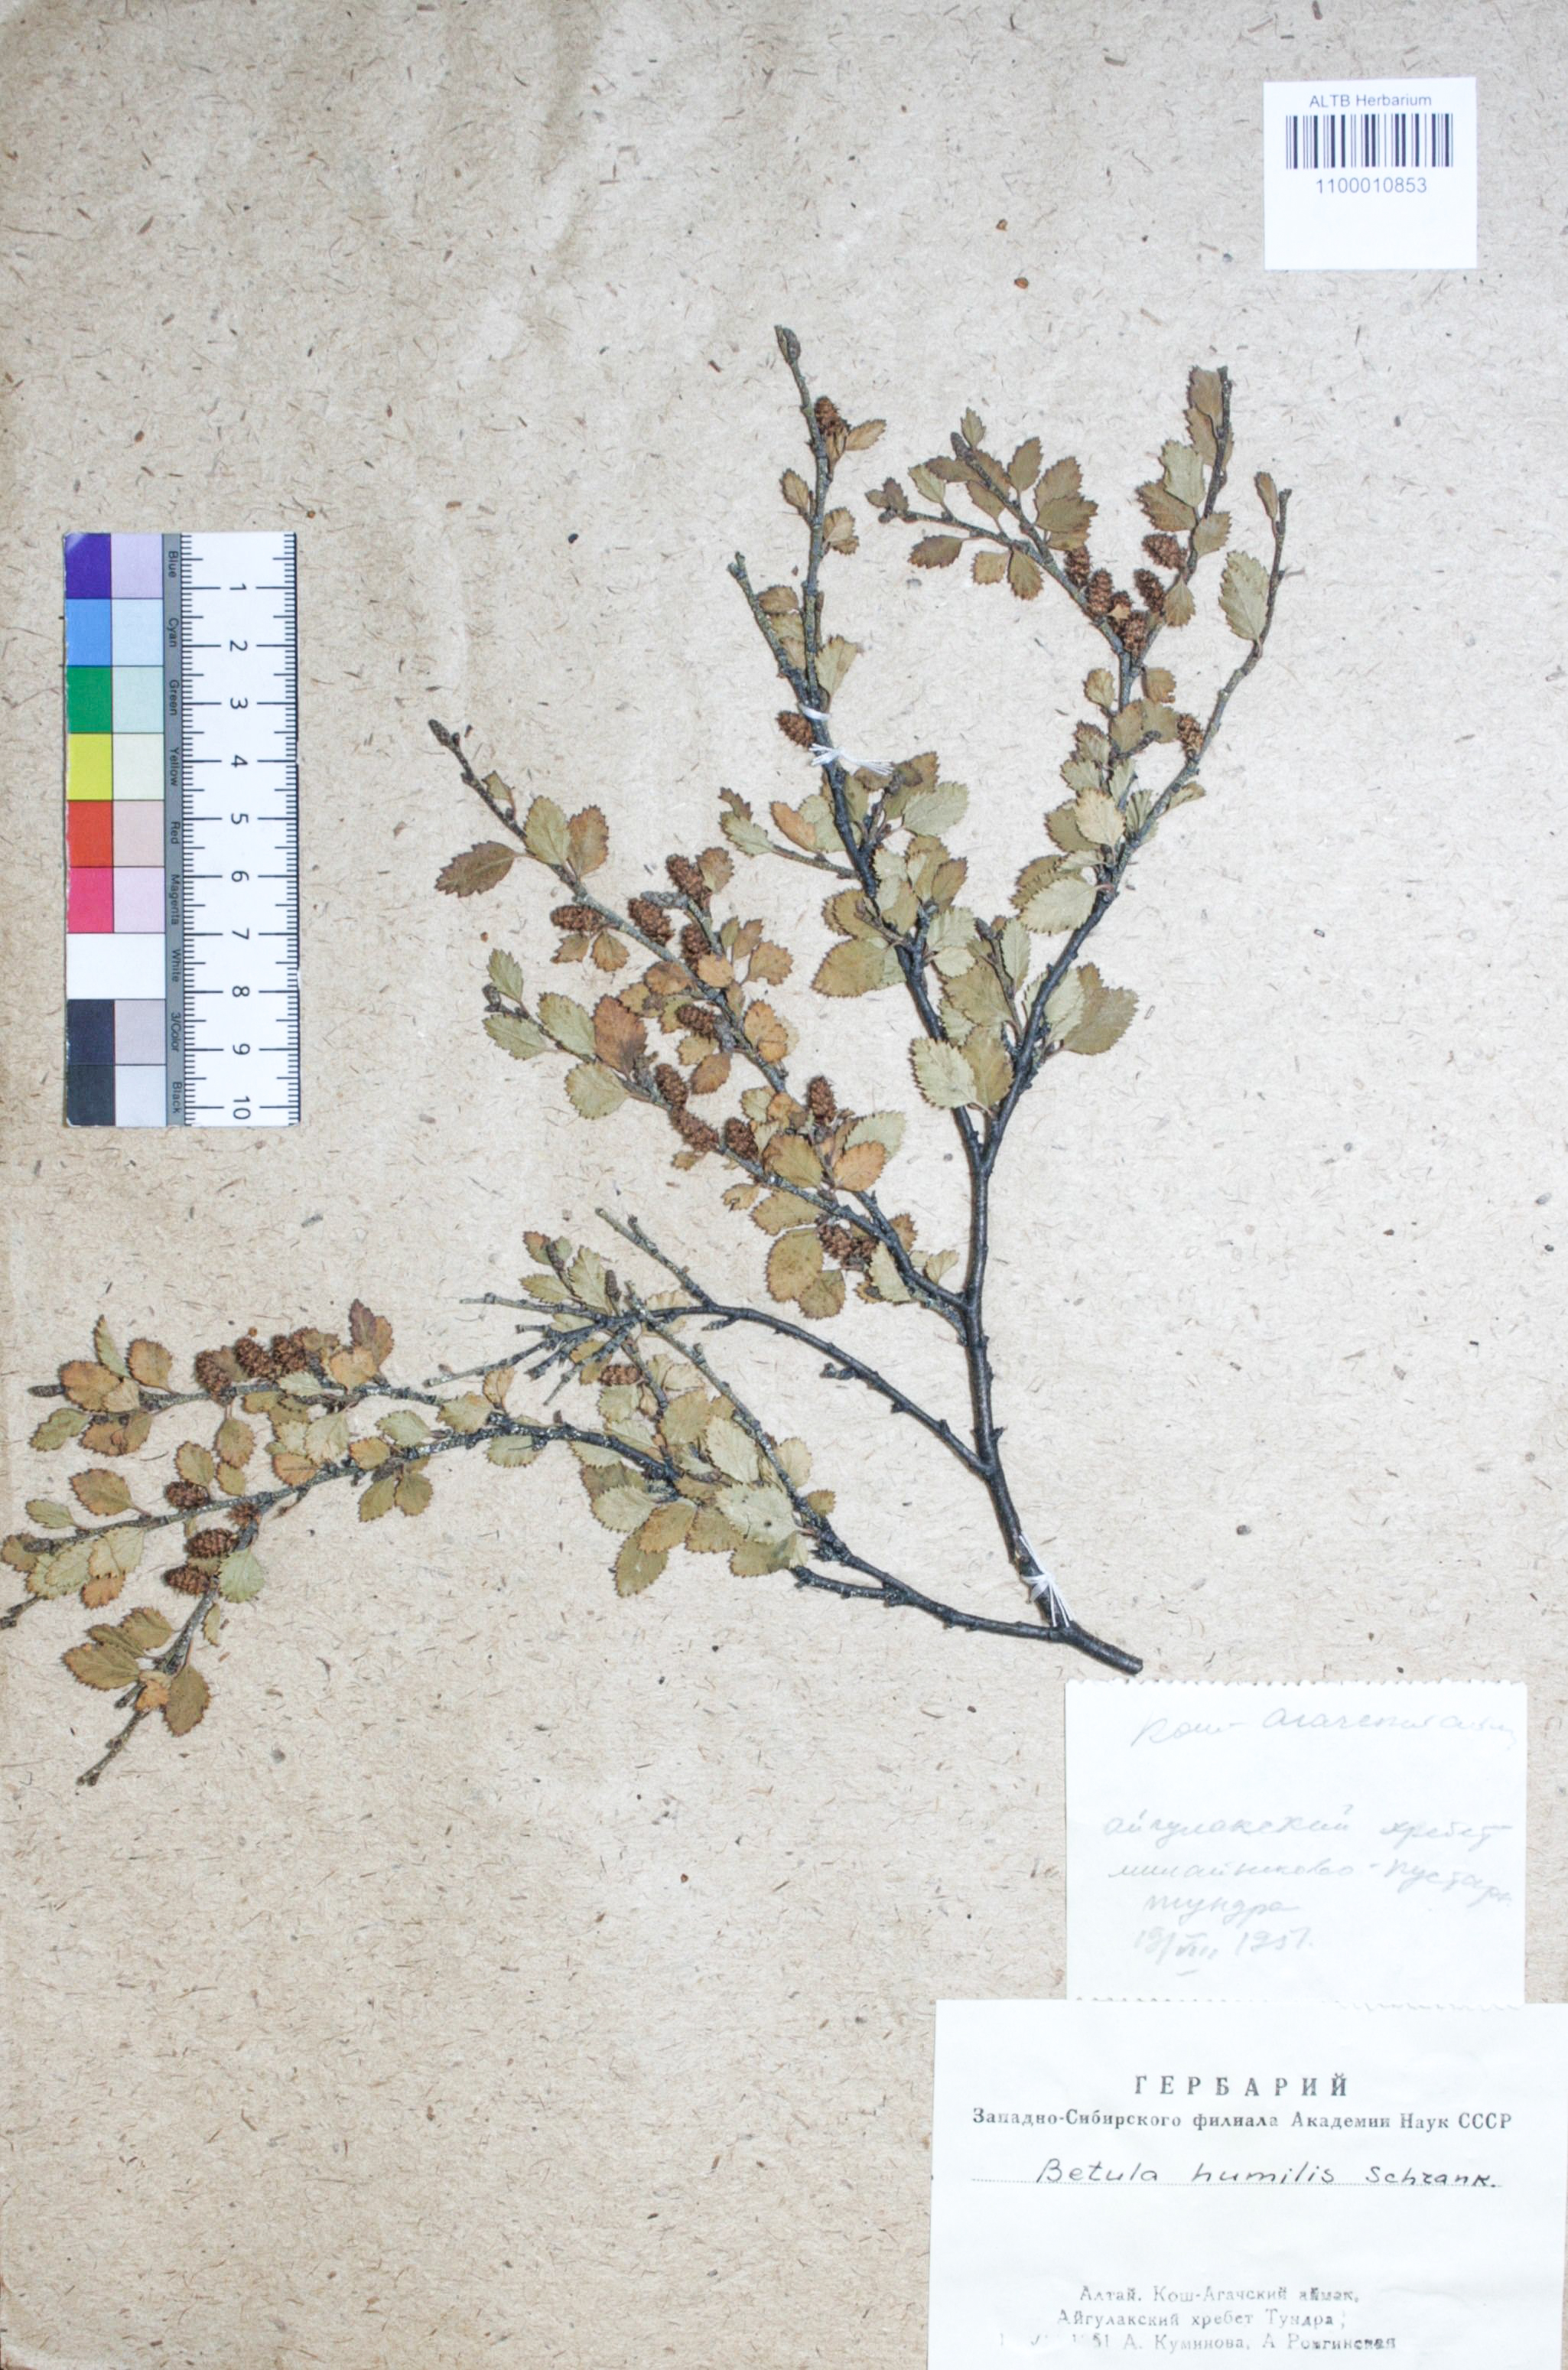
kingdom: Plantae
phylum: Tracheophyta
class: Magnoliopsida
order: Fagales
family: Betulaceae
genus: Betula
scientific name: Betula humilis
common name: Shrubby birch
